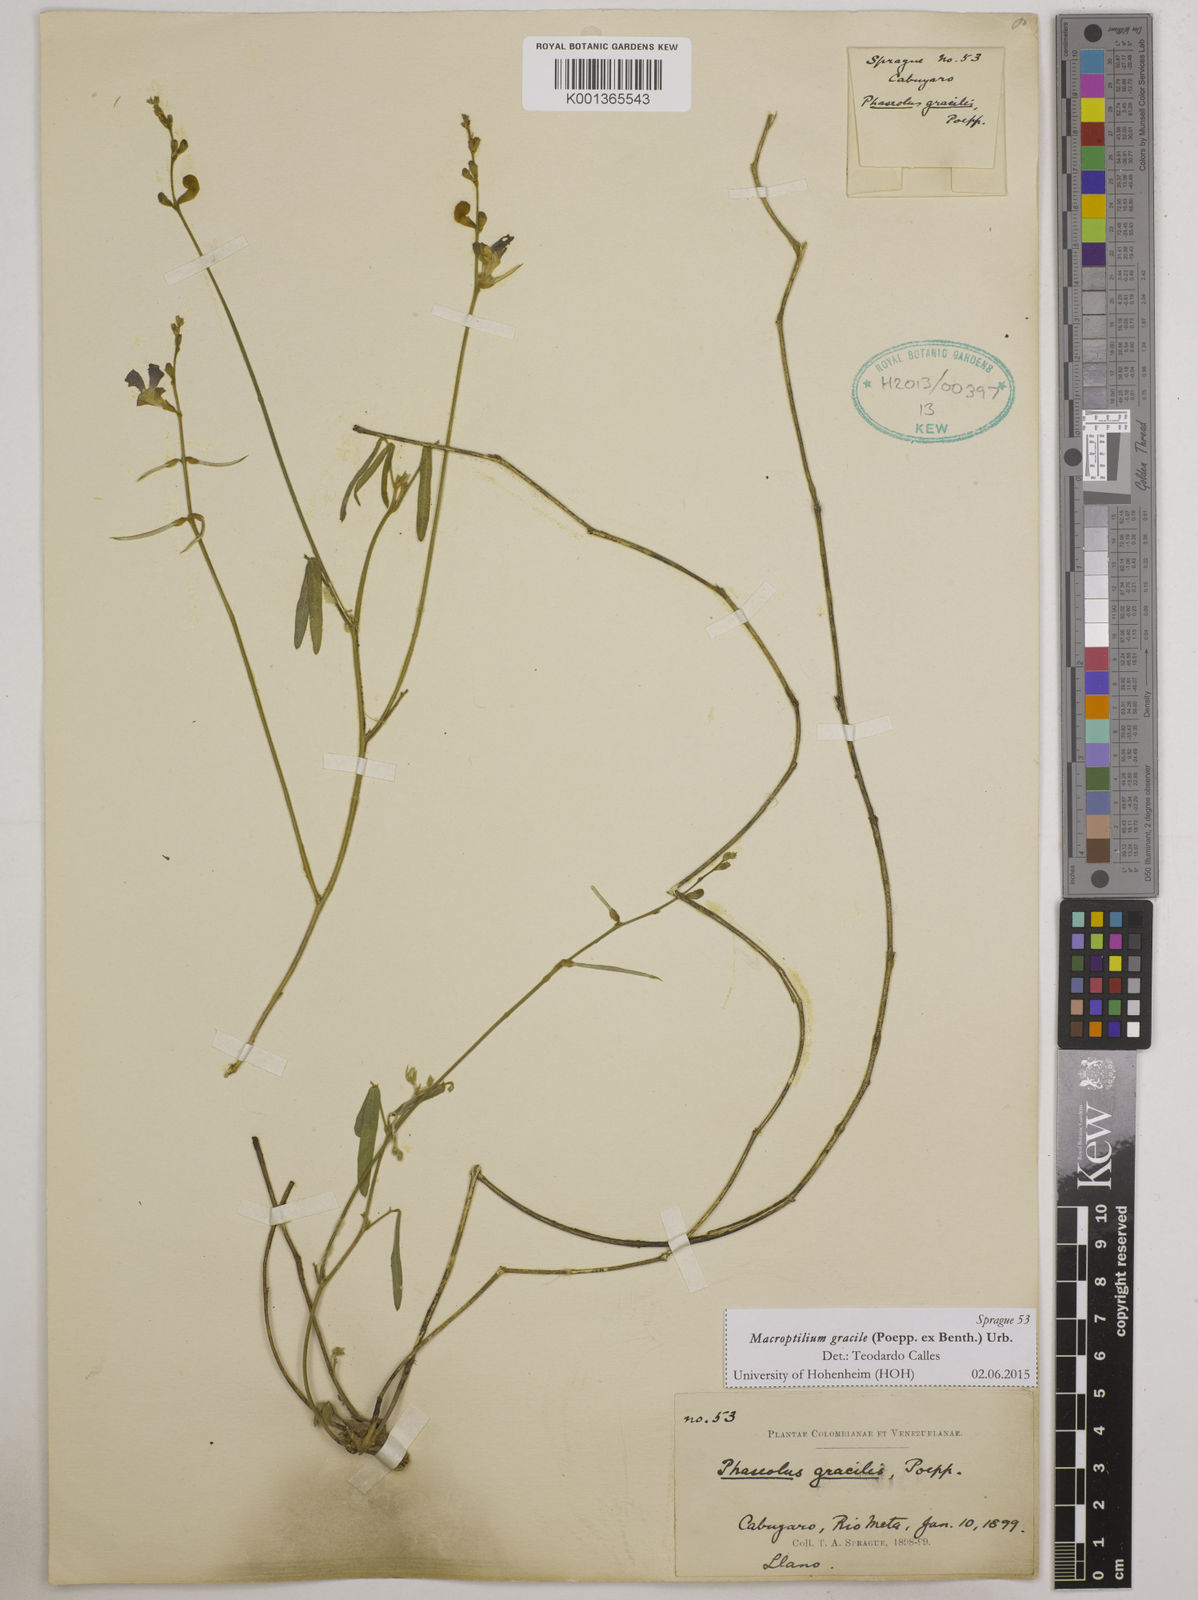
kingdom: Plantae
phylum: Tracheophyta
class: Magnoliopsida
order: Fabales
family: Fabaceae
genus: Macroptilium
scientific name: Macroptilium gracile
